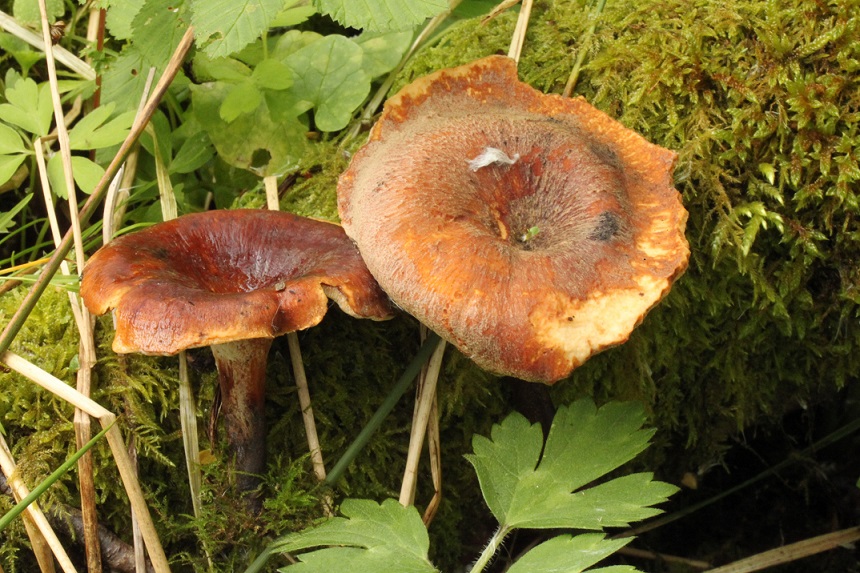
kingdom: Fungi
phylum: Basidiomycota
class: Agaricomycetes
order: Polyporales
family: Polyporaceae
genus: Picipes
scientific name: Picipes tubaeformis
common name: trompet-stilkporesvamp
